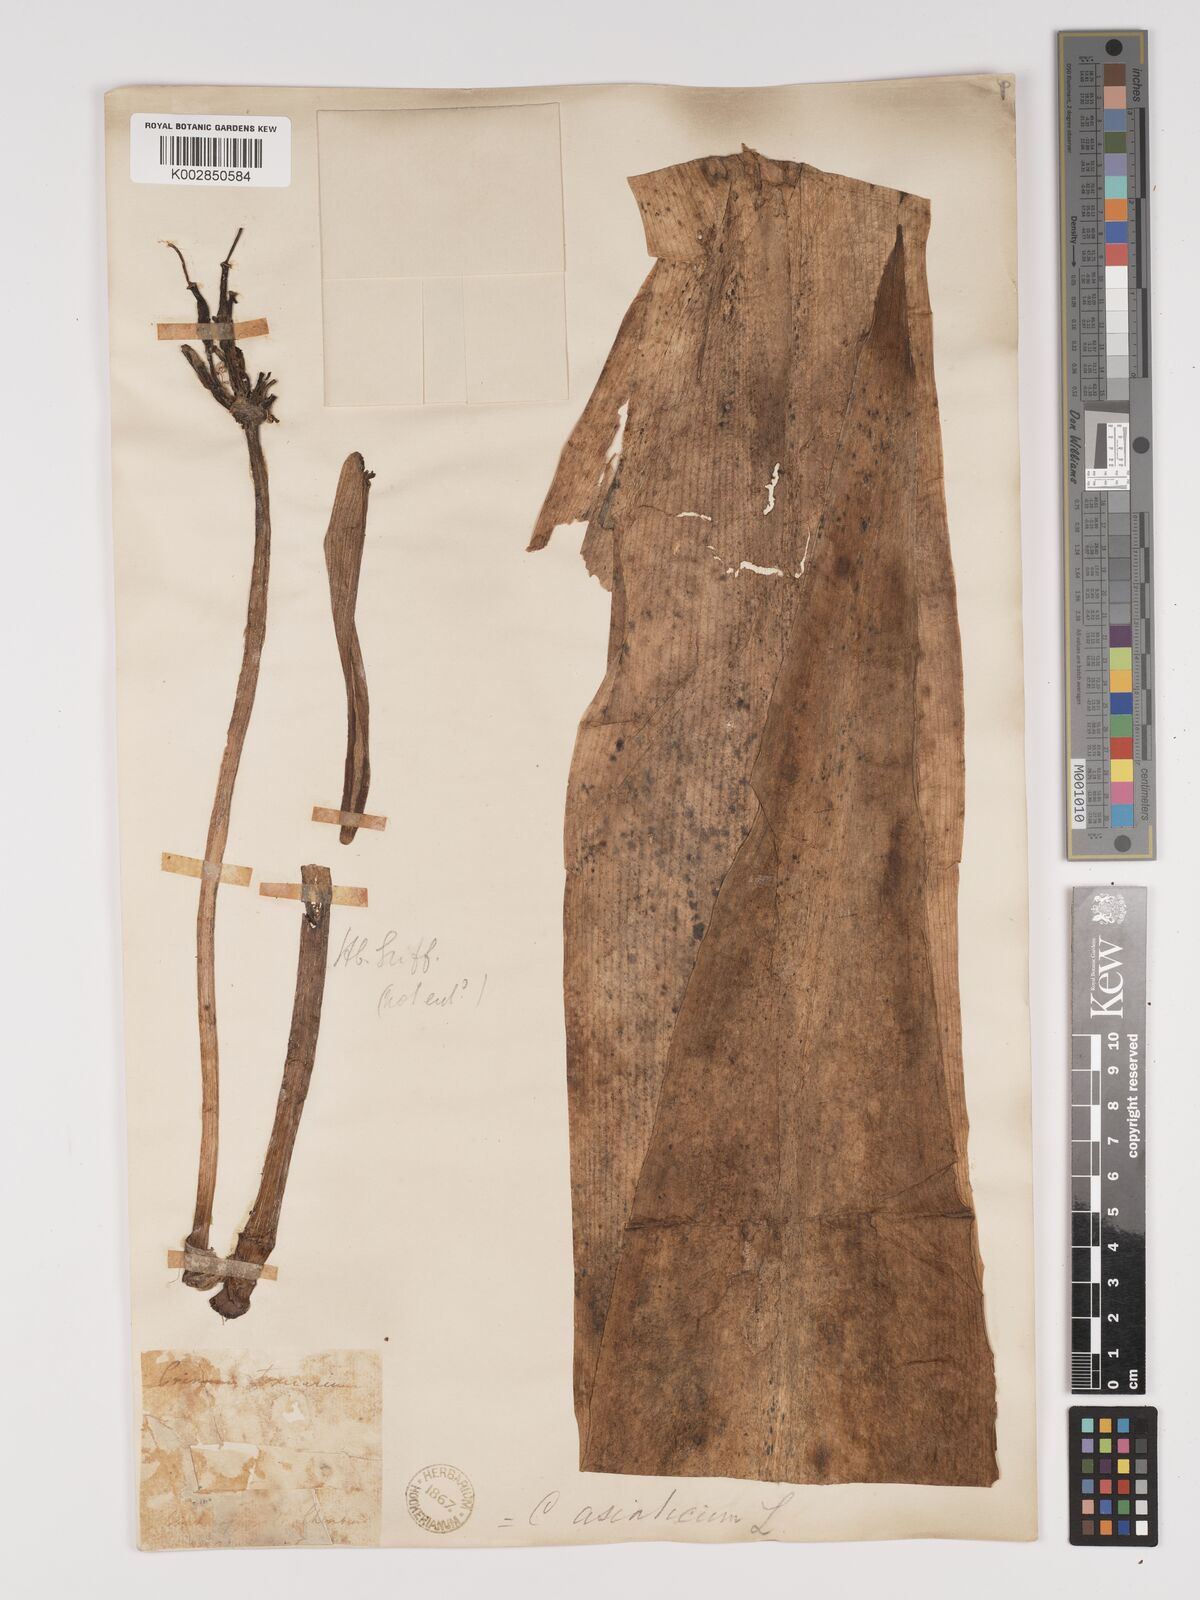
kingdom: Plantae
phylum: Tracheophyta
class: Liliopsida
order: Asparagales
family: Amaryllidaceae
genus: Crinum
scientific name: Crinum asiaticum
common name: Poisonbulb
